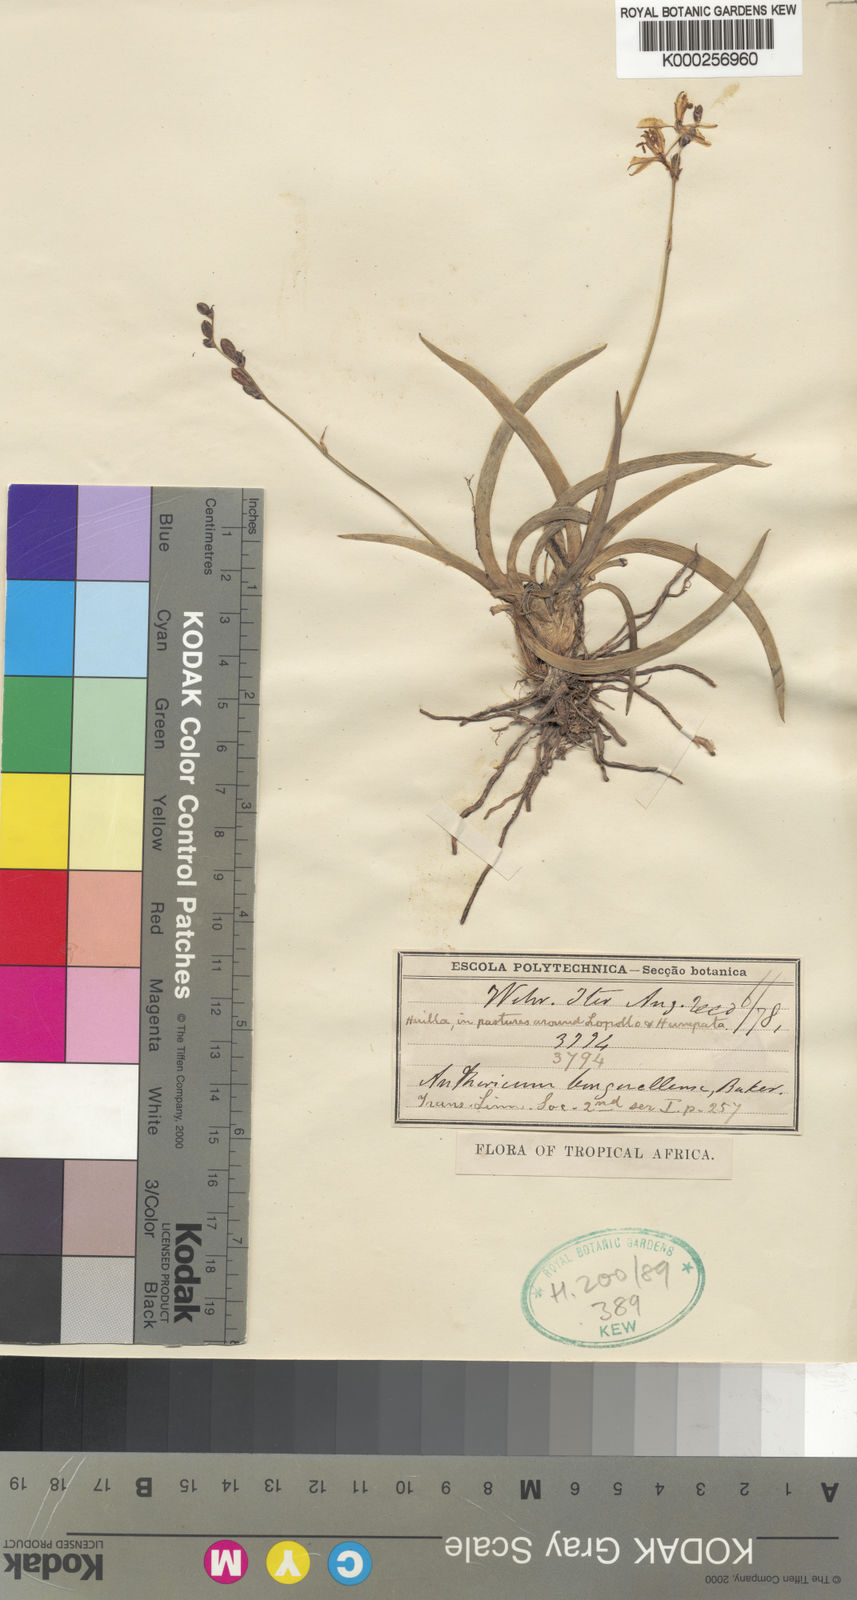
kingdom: Plantae
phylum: Tracheophyta
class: Liliopsida
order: Asparagales
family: Asparagaceae
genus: Chlorophytum
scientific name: Chlorophytum benguellense
